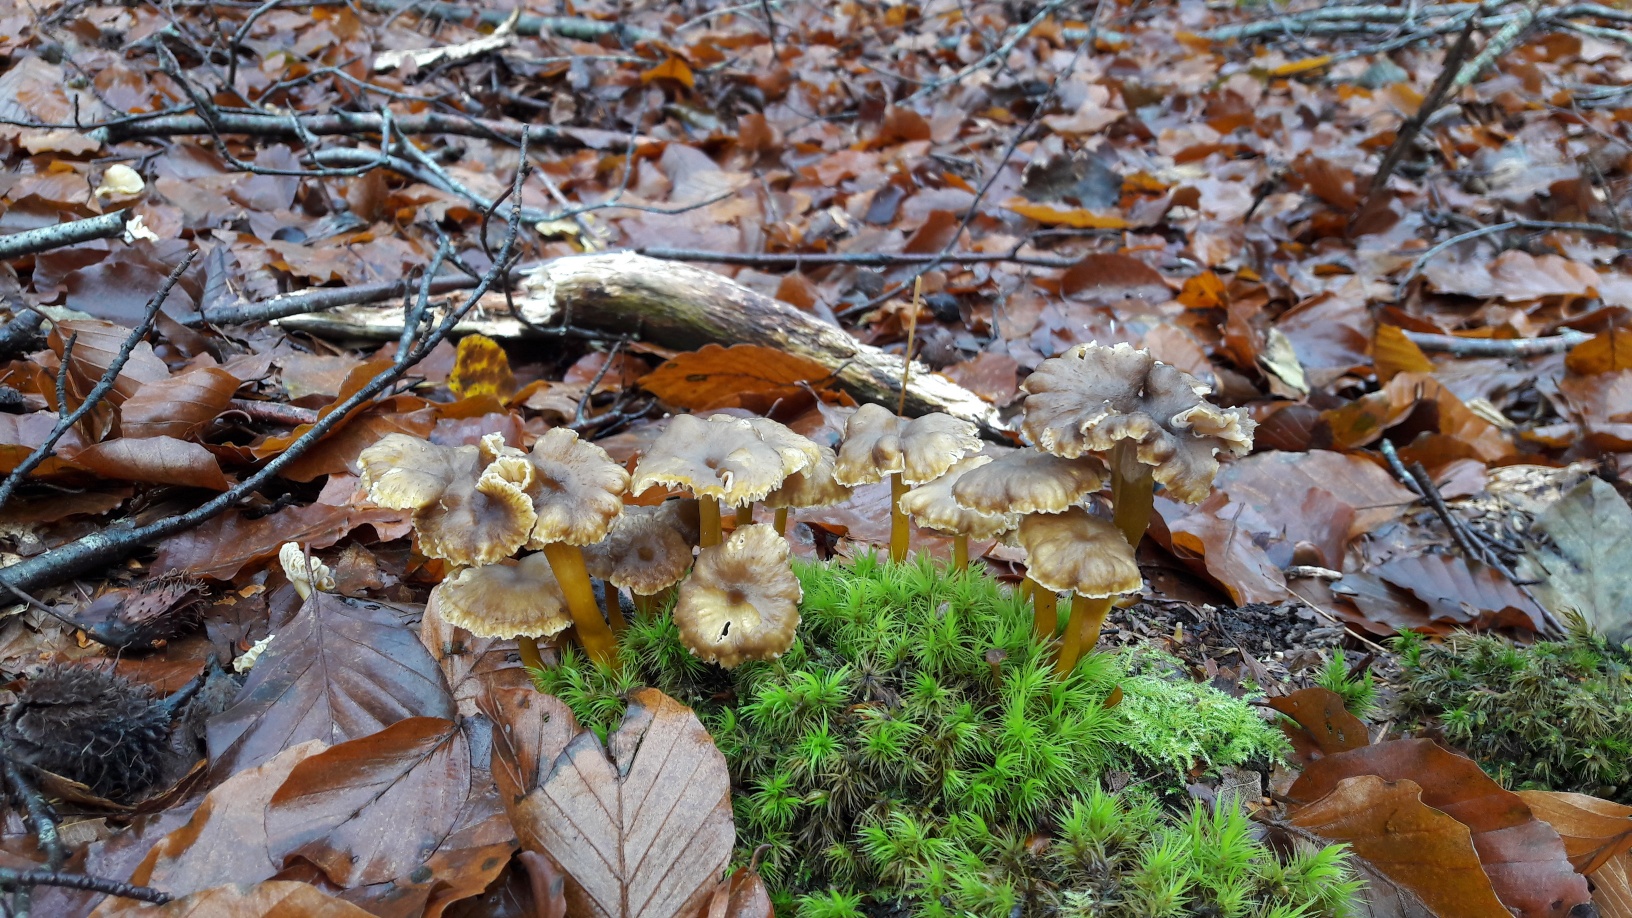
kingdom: Fungi
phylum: Basidiomycota
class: Agaricomycetes
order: Cantharellales
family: Hydnaceae
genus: Craterellus
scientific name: Craterellus tubaeformis
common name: tragt-kantarel
